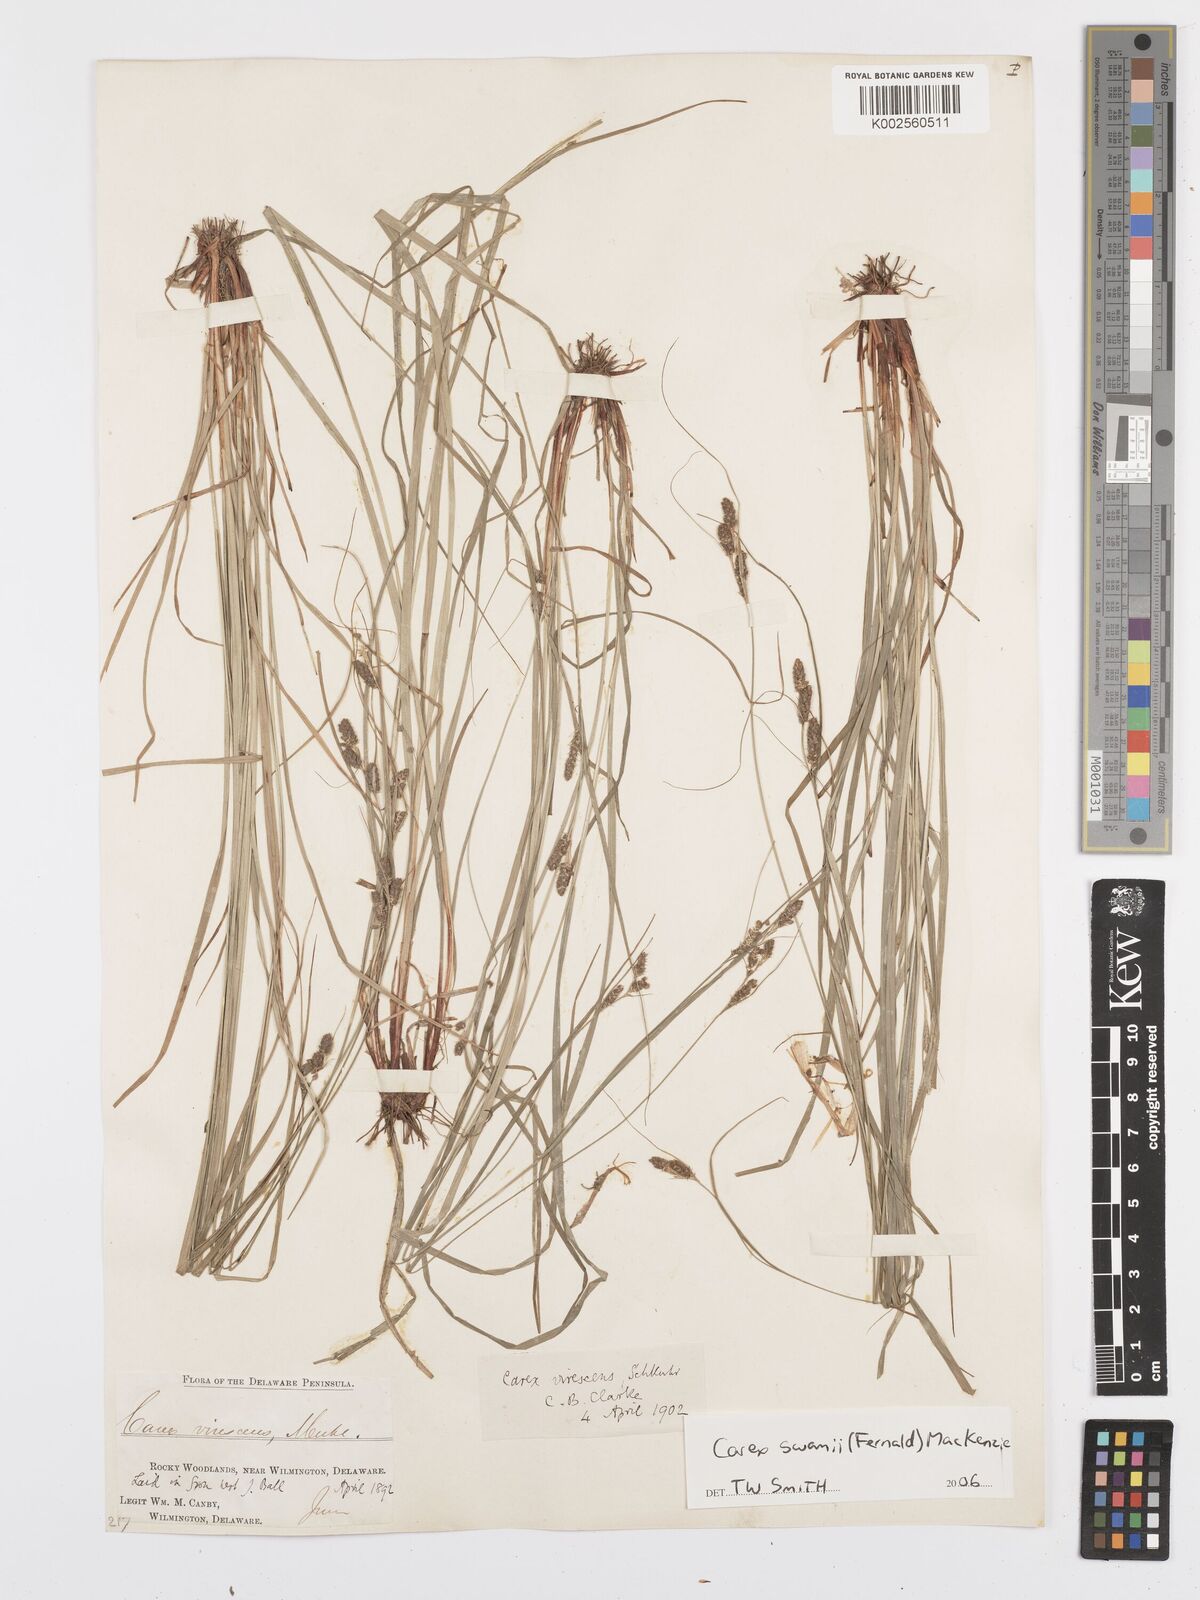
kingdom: Plantae
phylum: Tracheophyta
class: Liliopsida
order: Poales
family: Cyperaceae
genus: Carex
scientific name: Carex swanii
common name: Downy green sedge
